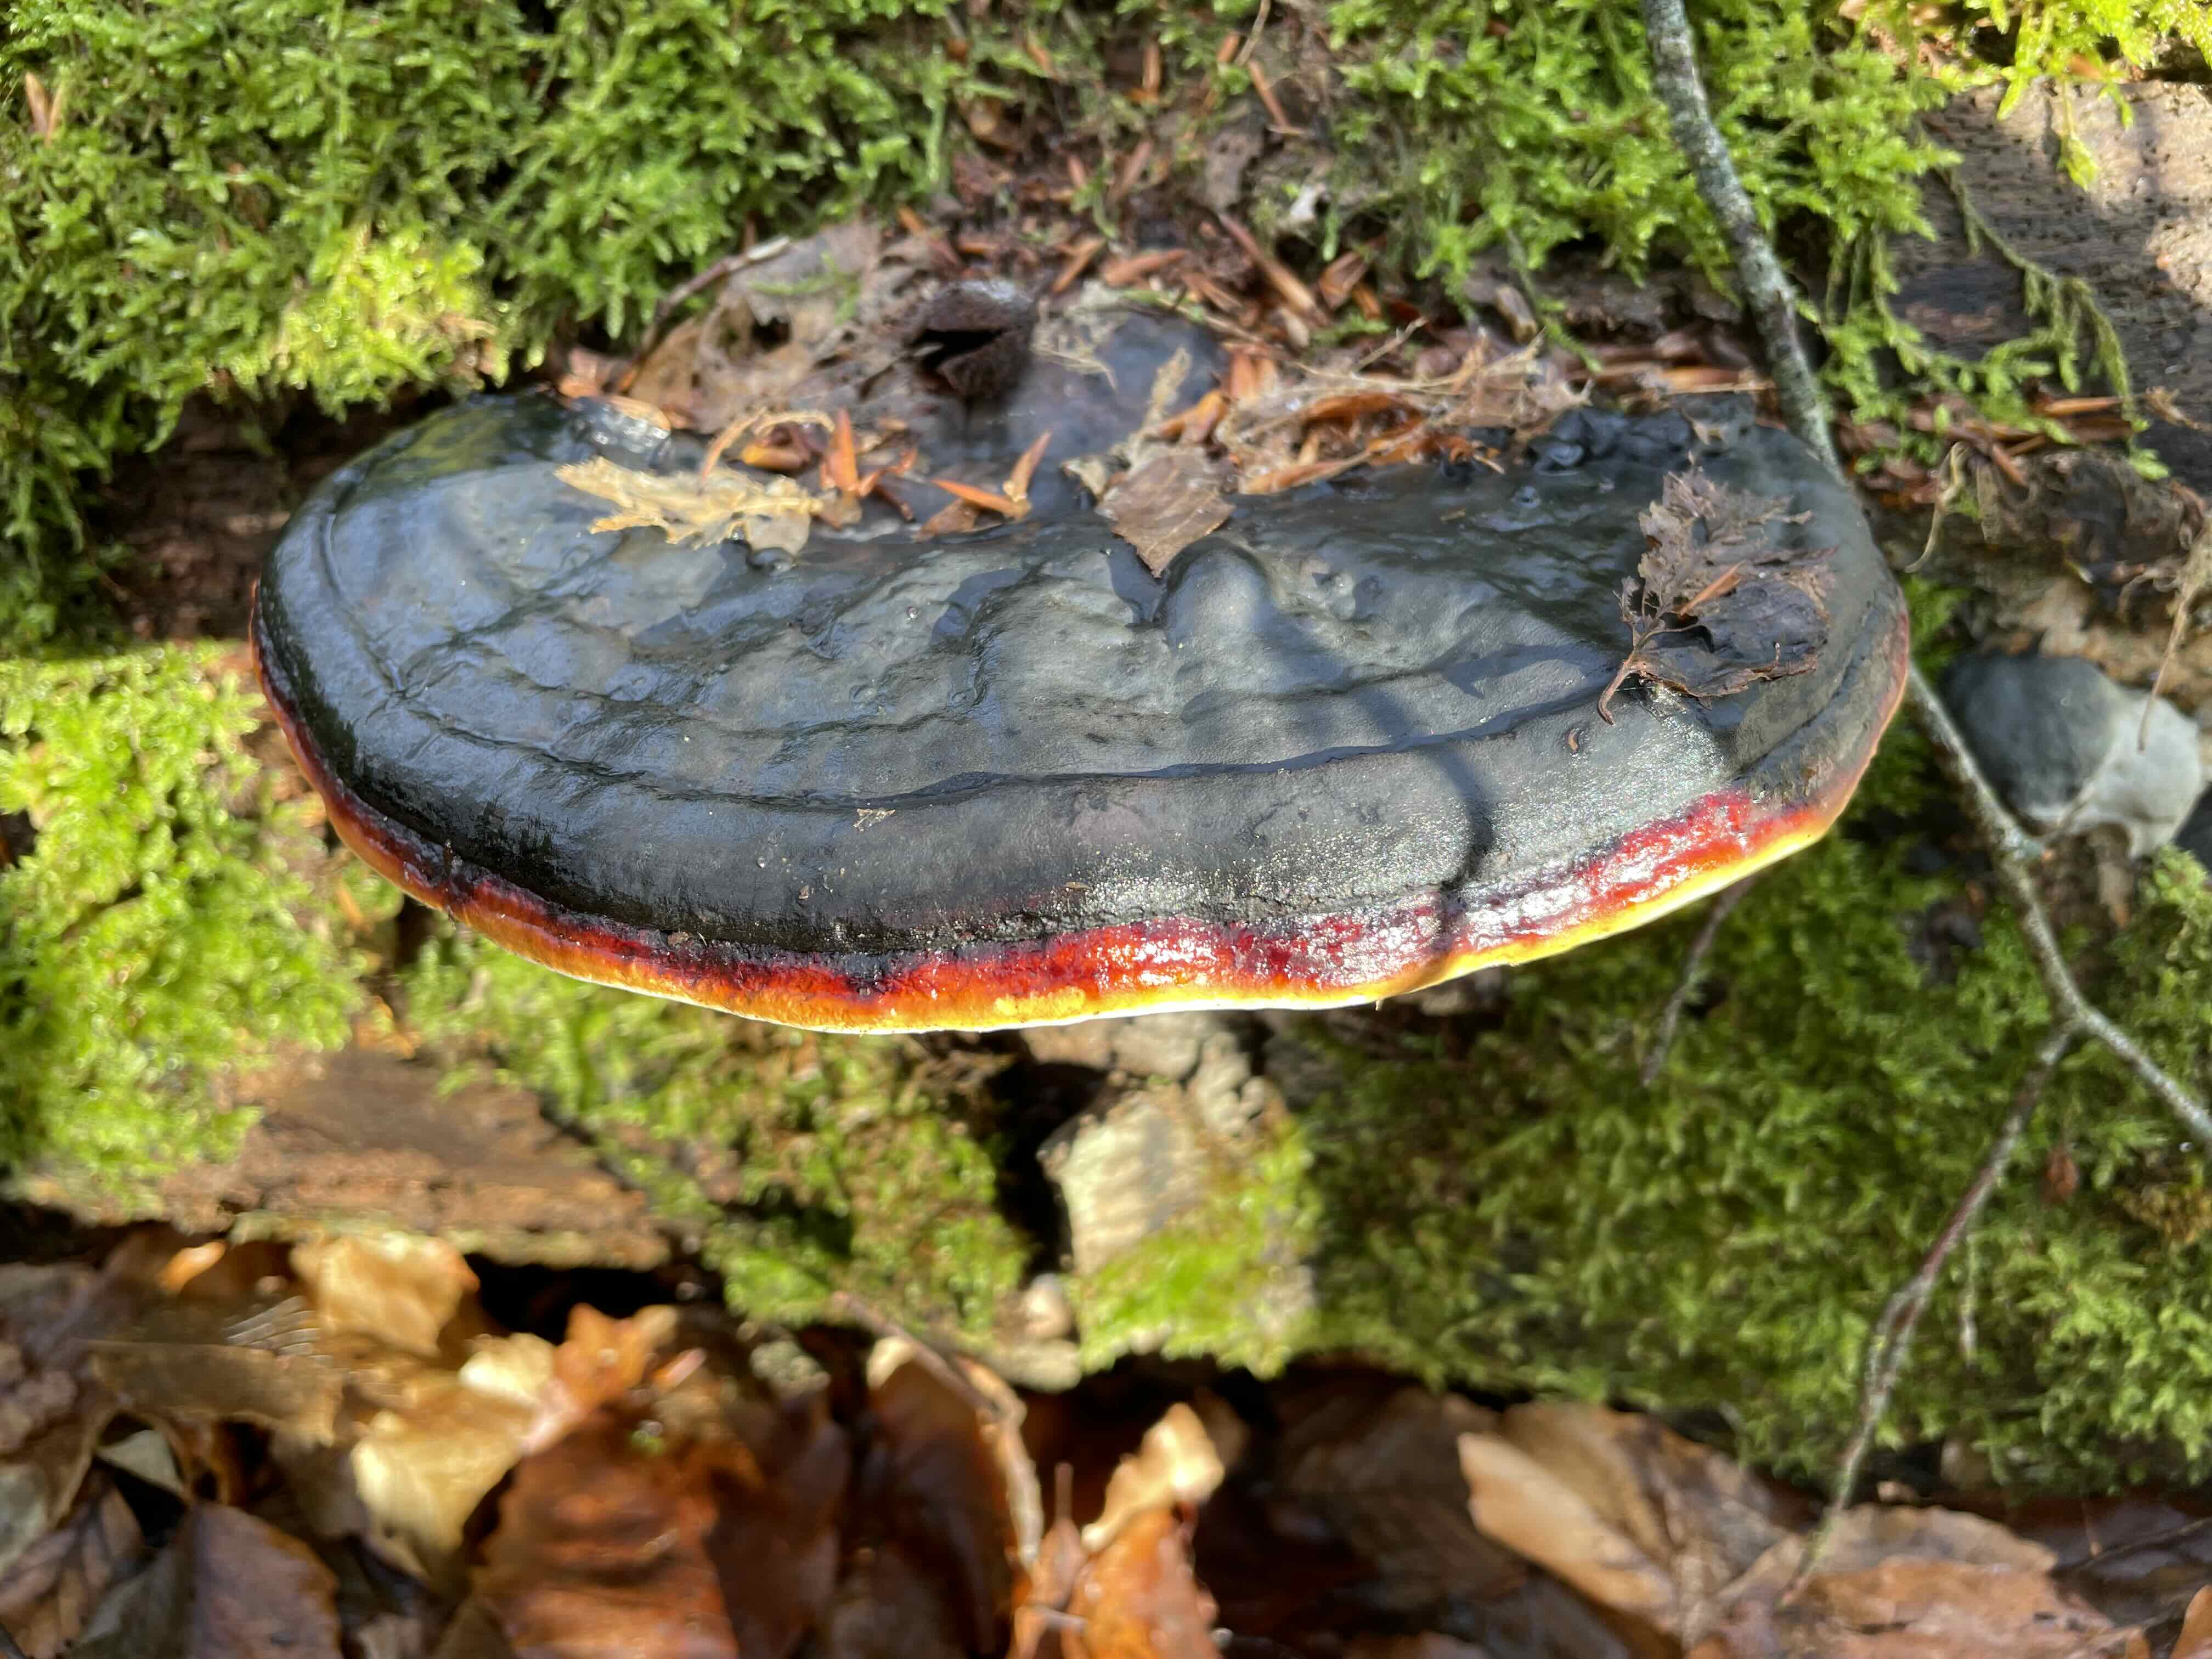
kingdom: Fungi
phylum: Basidiomycota
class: Agaricomycetes
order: Polyporales
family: Fomitopsidaceae
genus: Fomitopsis
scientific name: Fomitopsis pinicola
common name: randbæltet hovporesvamp
